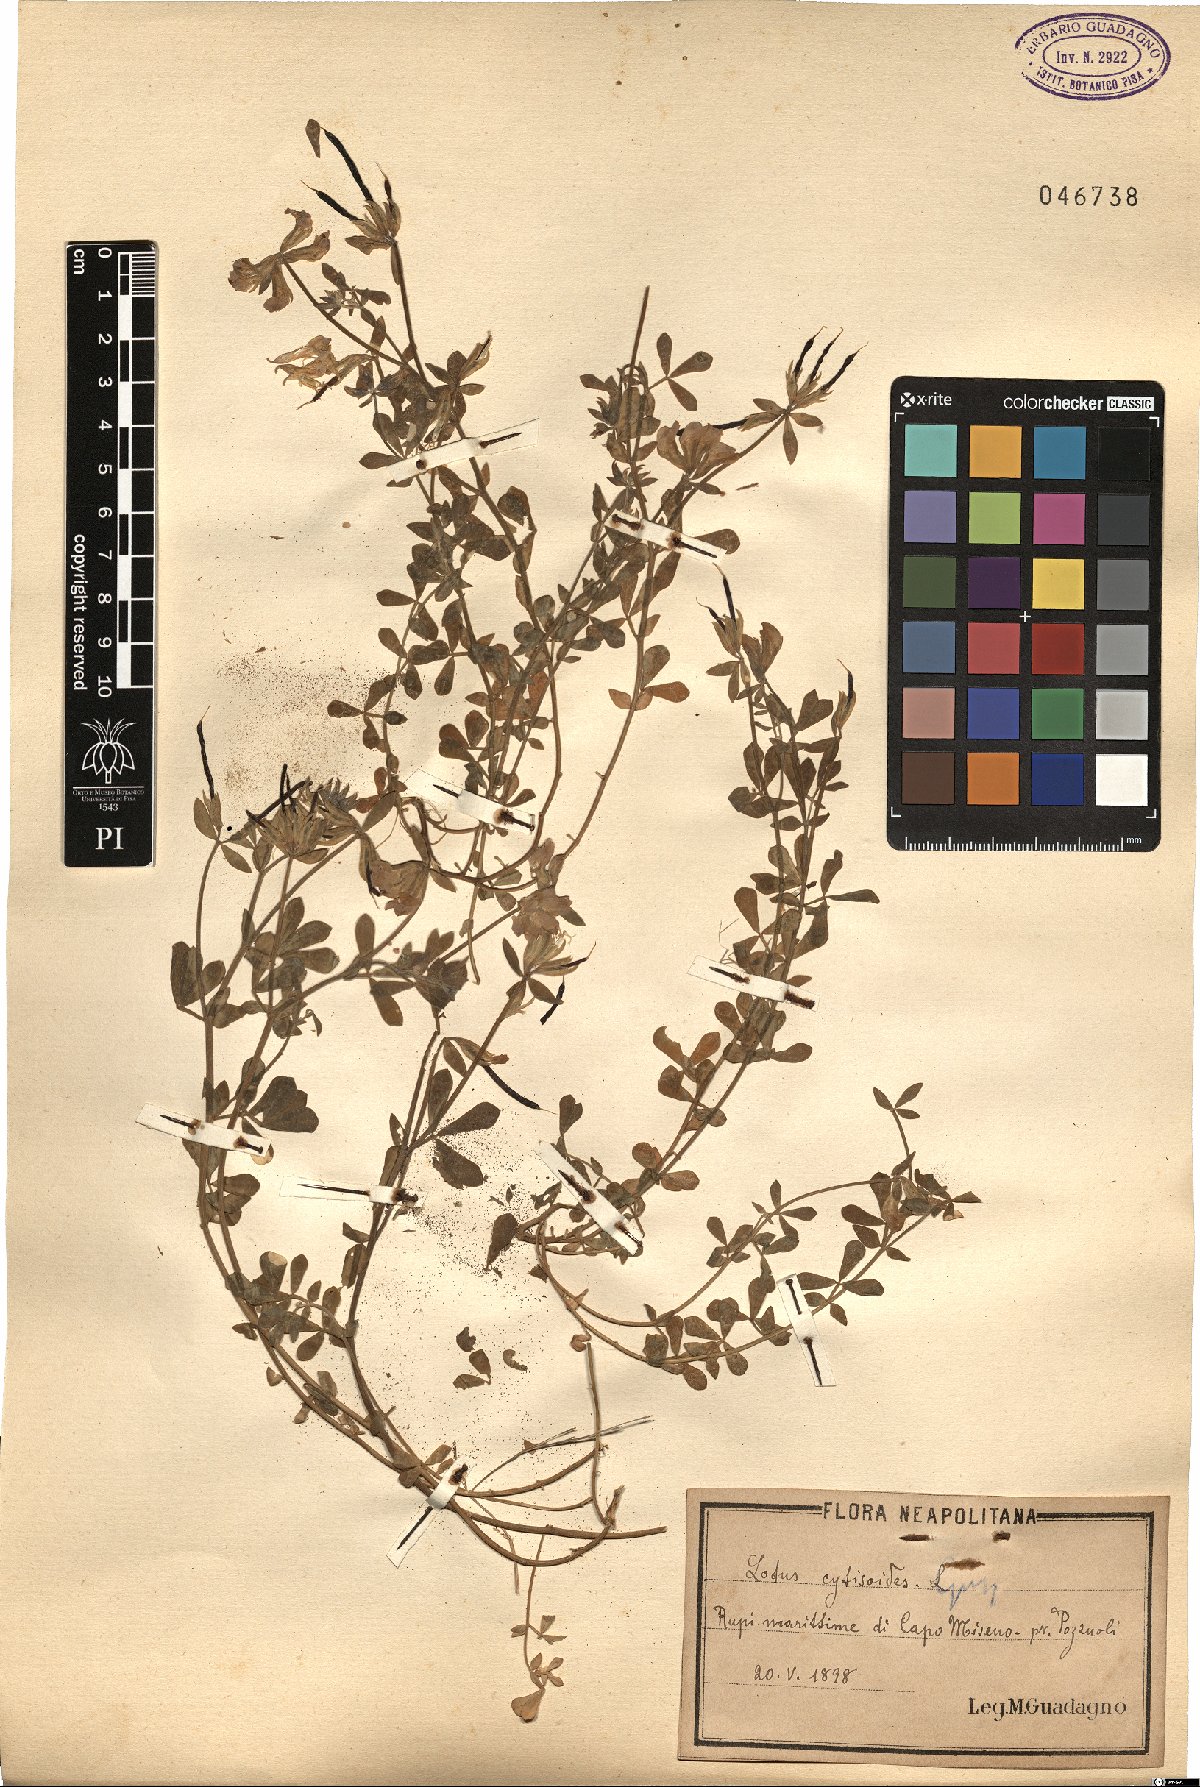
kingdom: Plantae
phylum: Tracheophyta
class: Magnoliopsida
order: Fabales
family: Fabaceae
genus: Lotus
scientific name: Lotus cytisoides
